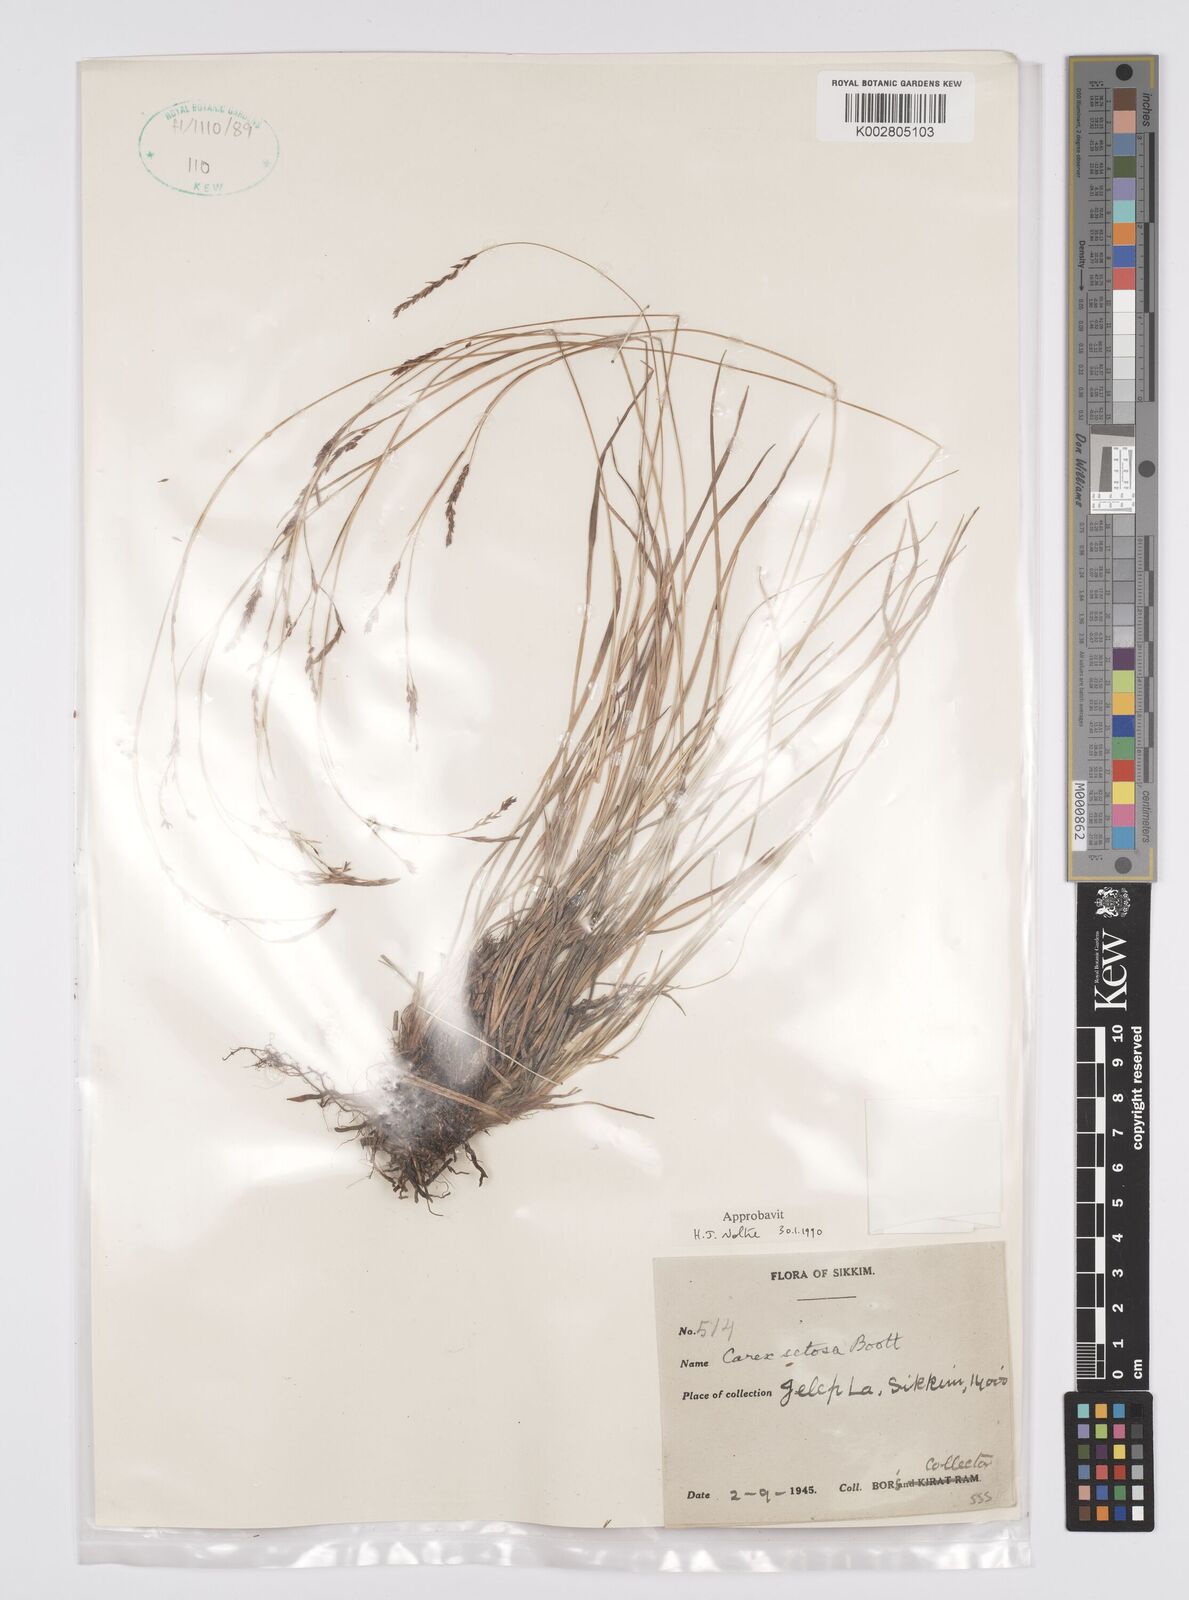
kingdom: Plantae
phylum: Tracheophyta
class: Liliopsida
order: Poales
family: Cyperaceae
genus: Carex
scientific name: Carex setosa
